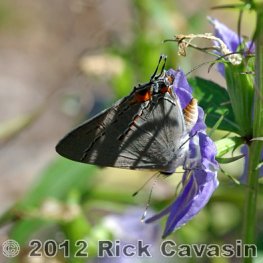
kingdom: Animalia
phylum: Arthropoda
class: Insecta
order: Lepidoptera
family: Lycaenidae
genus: Strymon
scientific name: Strymon melinus
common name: Gray Hairstreak
